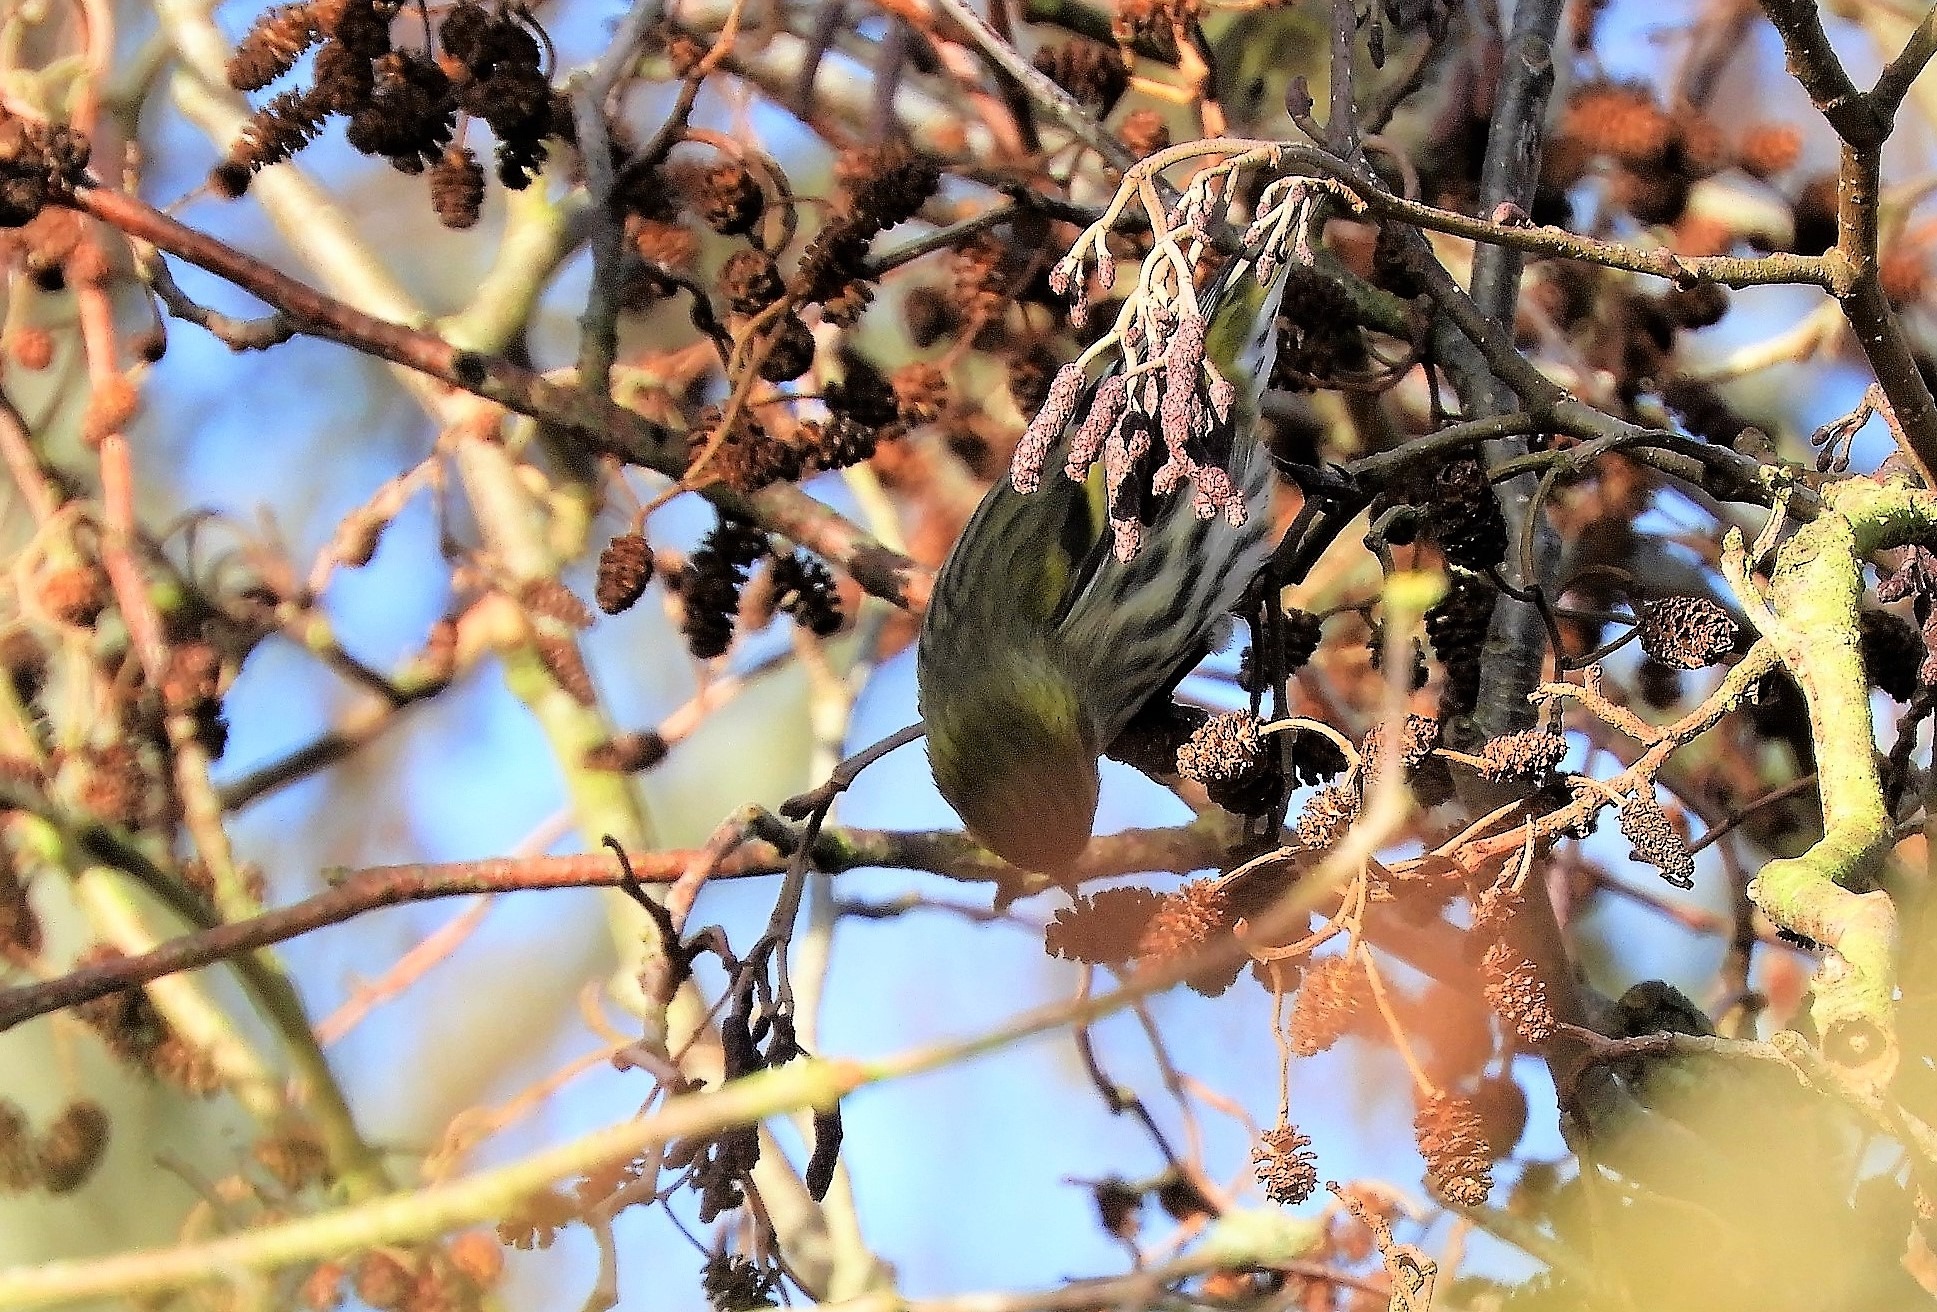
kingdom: Animalia
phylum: Chordata
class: Aves
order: Passeriformes
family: Fringillidae
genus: Spinus
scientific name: Spinus spinus
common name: Grønsisken
